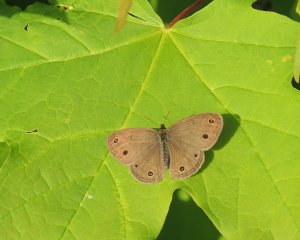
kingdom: Animalia
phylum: Arthropoda
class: Insecta
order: Lepidoptera
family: Nymphalidae
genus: Euptychia
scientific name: Euptychia cymela
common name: Little Wood Satyr
